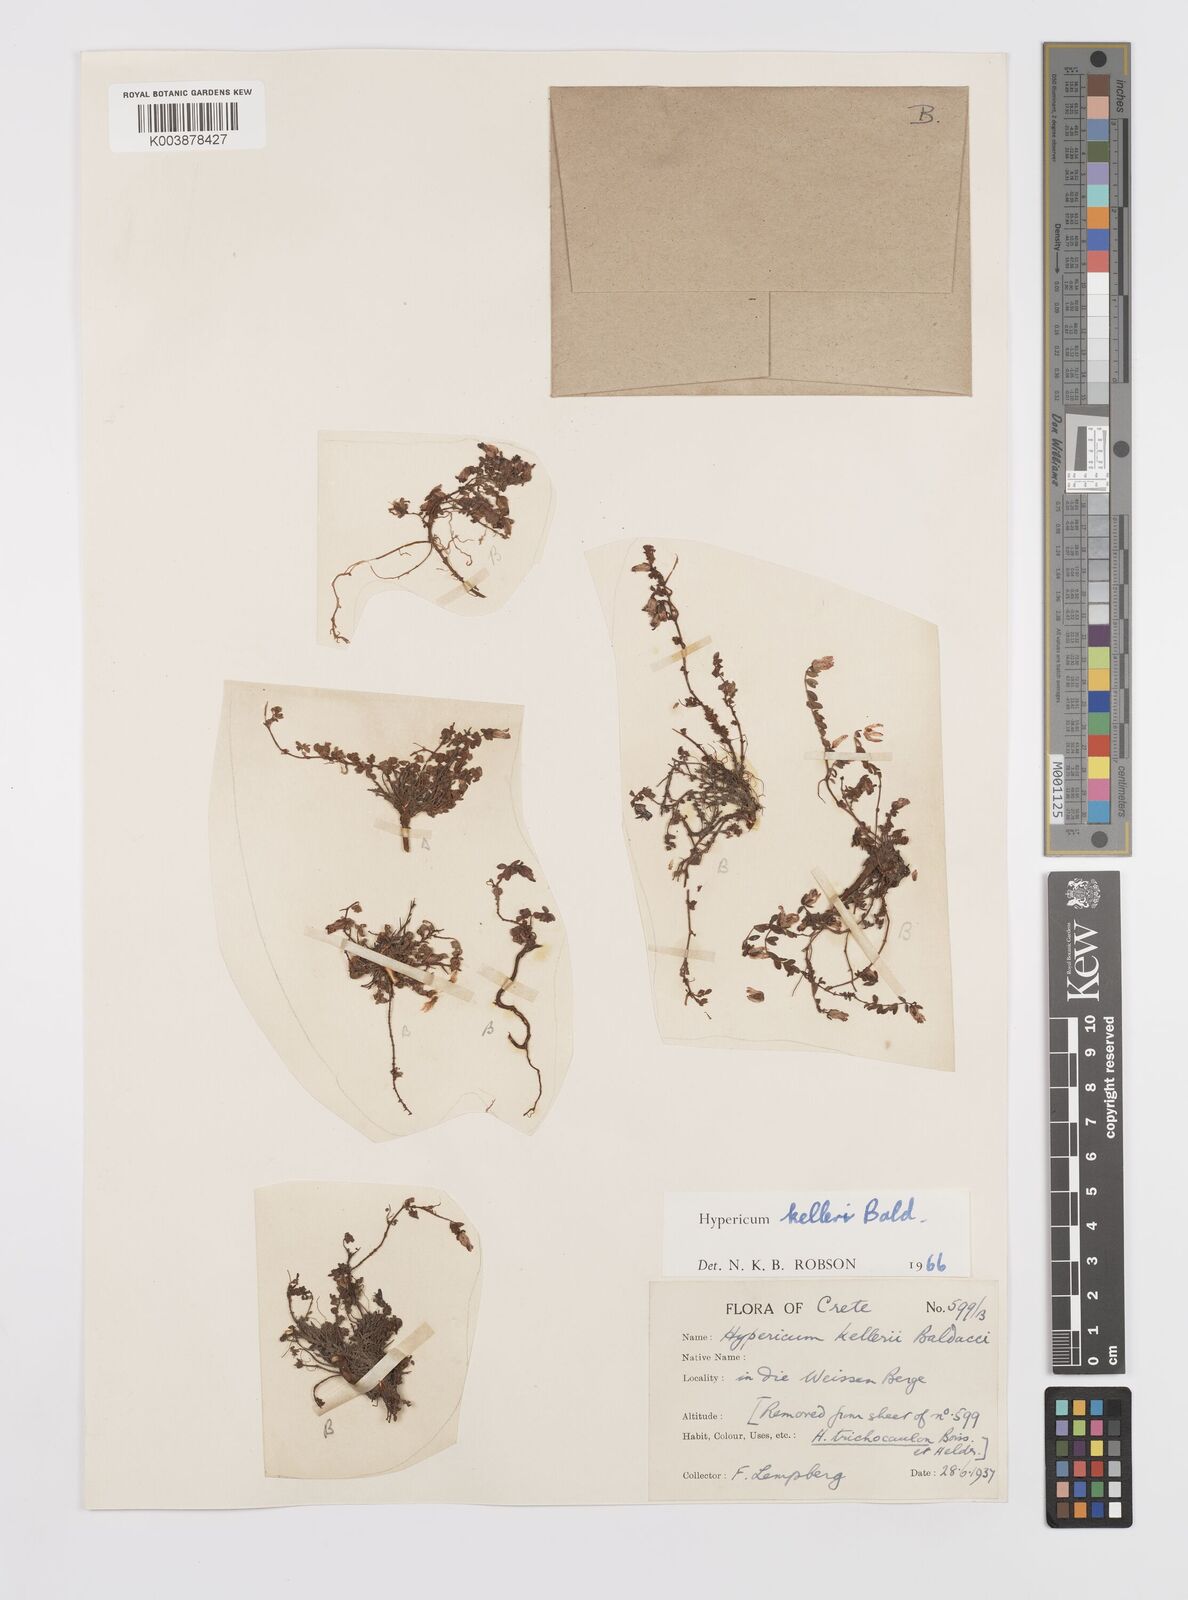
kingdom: Plantae
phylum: Tracheophyta
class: Magnoliopsida
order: Malpighiales
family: Hypericaceae
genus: Hypericum
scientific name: Hypericum kelleri
